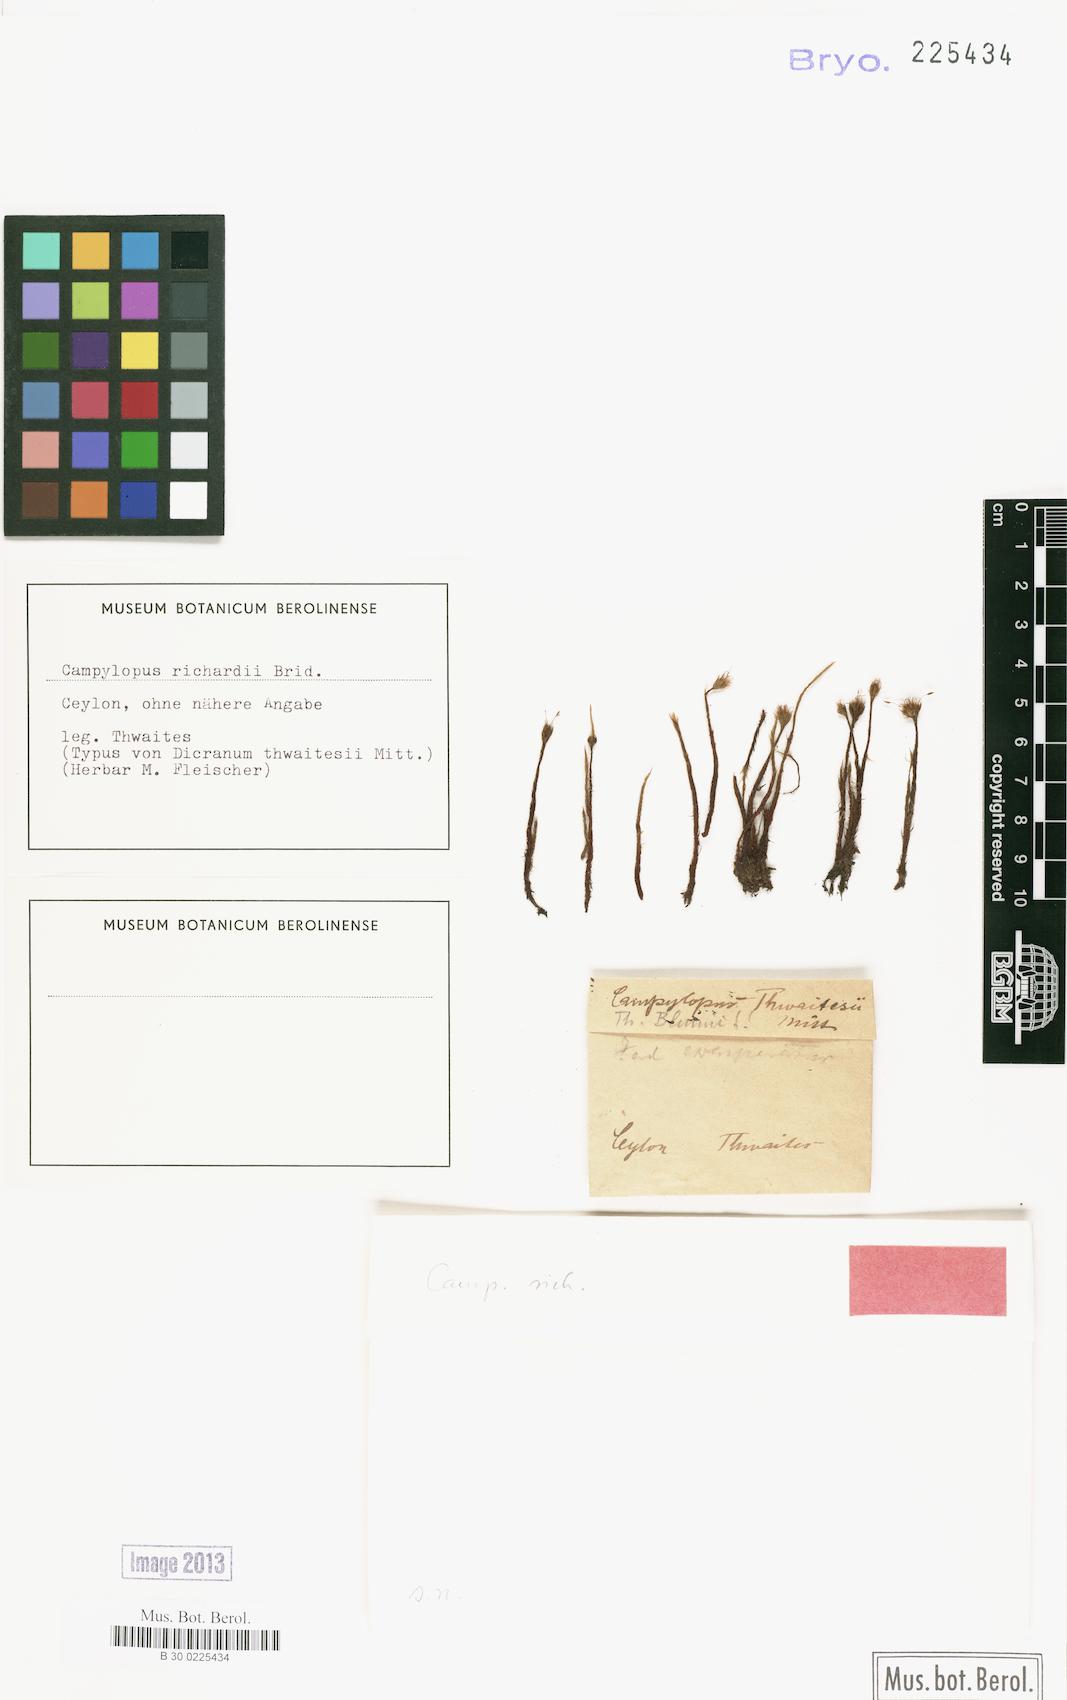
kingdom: Plantae
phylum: Bryophyta
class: Bryopsida
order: Dicranales
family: Leucobryaceae
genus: Campylopus
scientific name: Campylopus richardii
